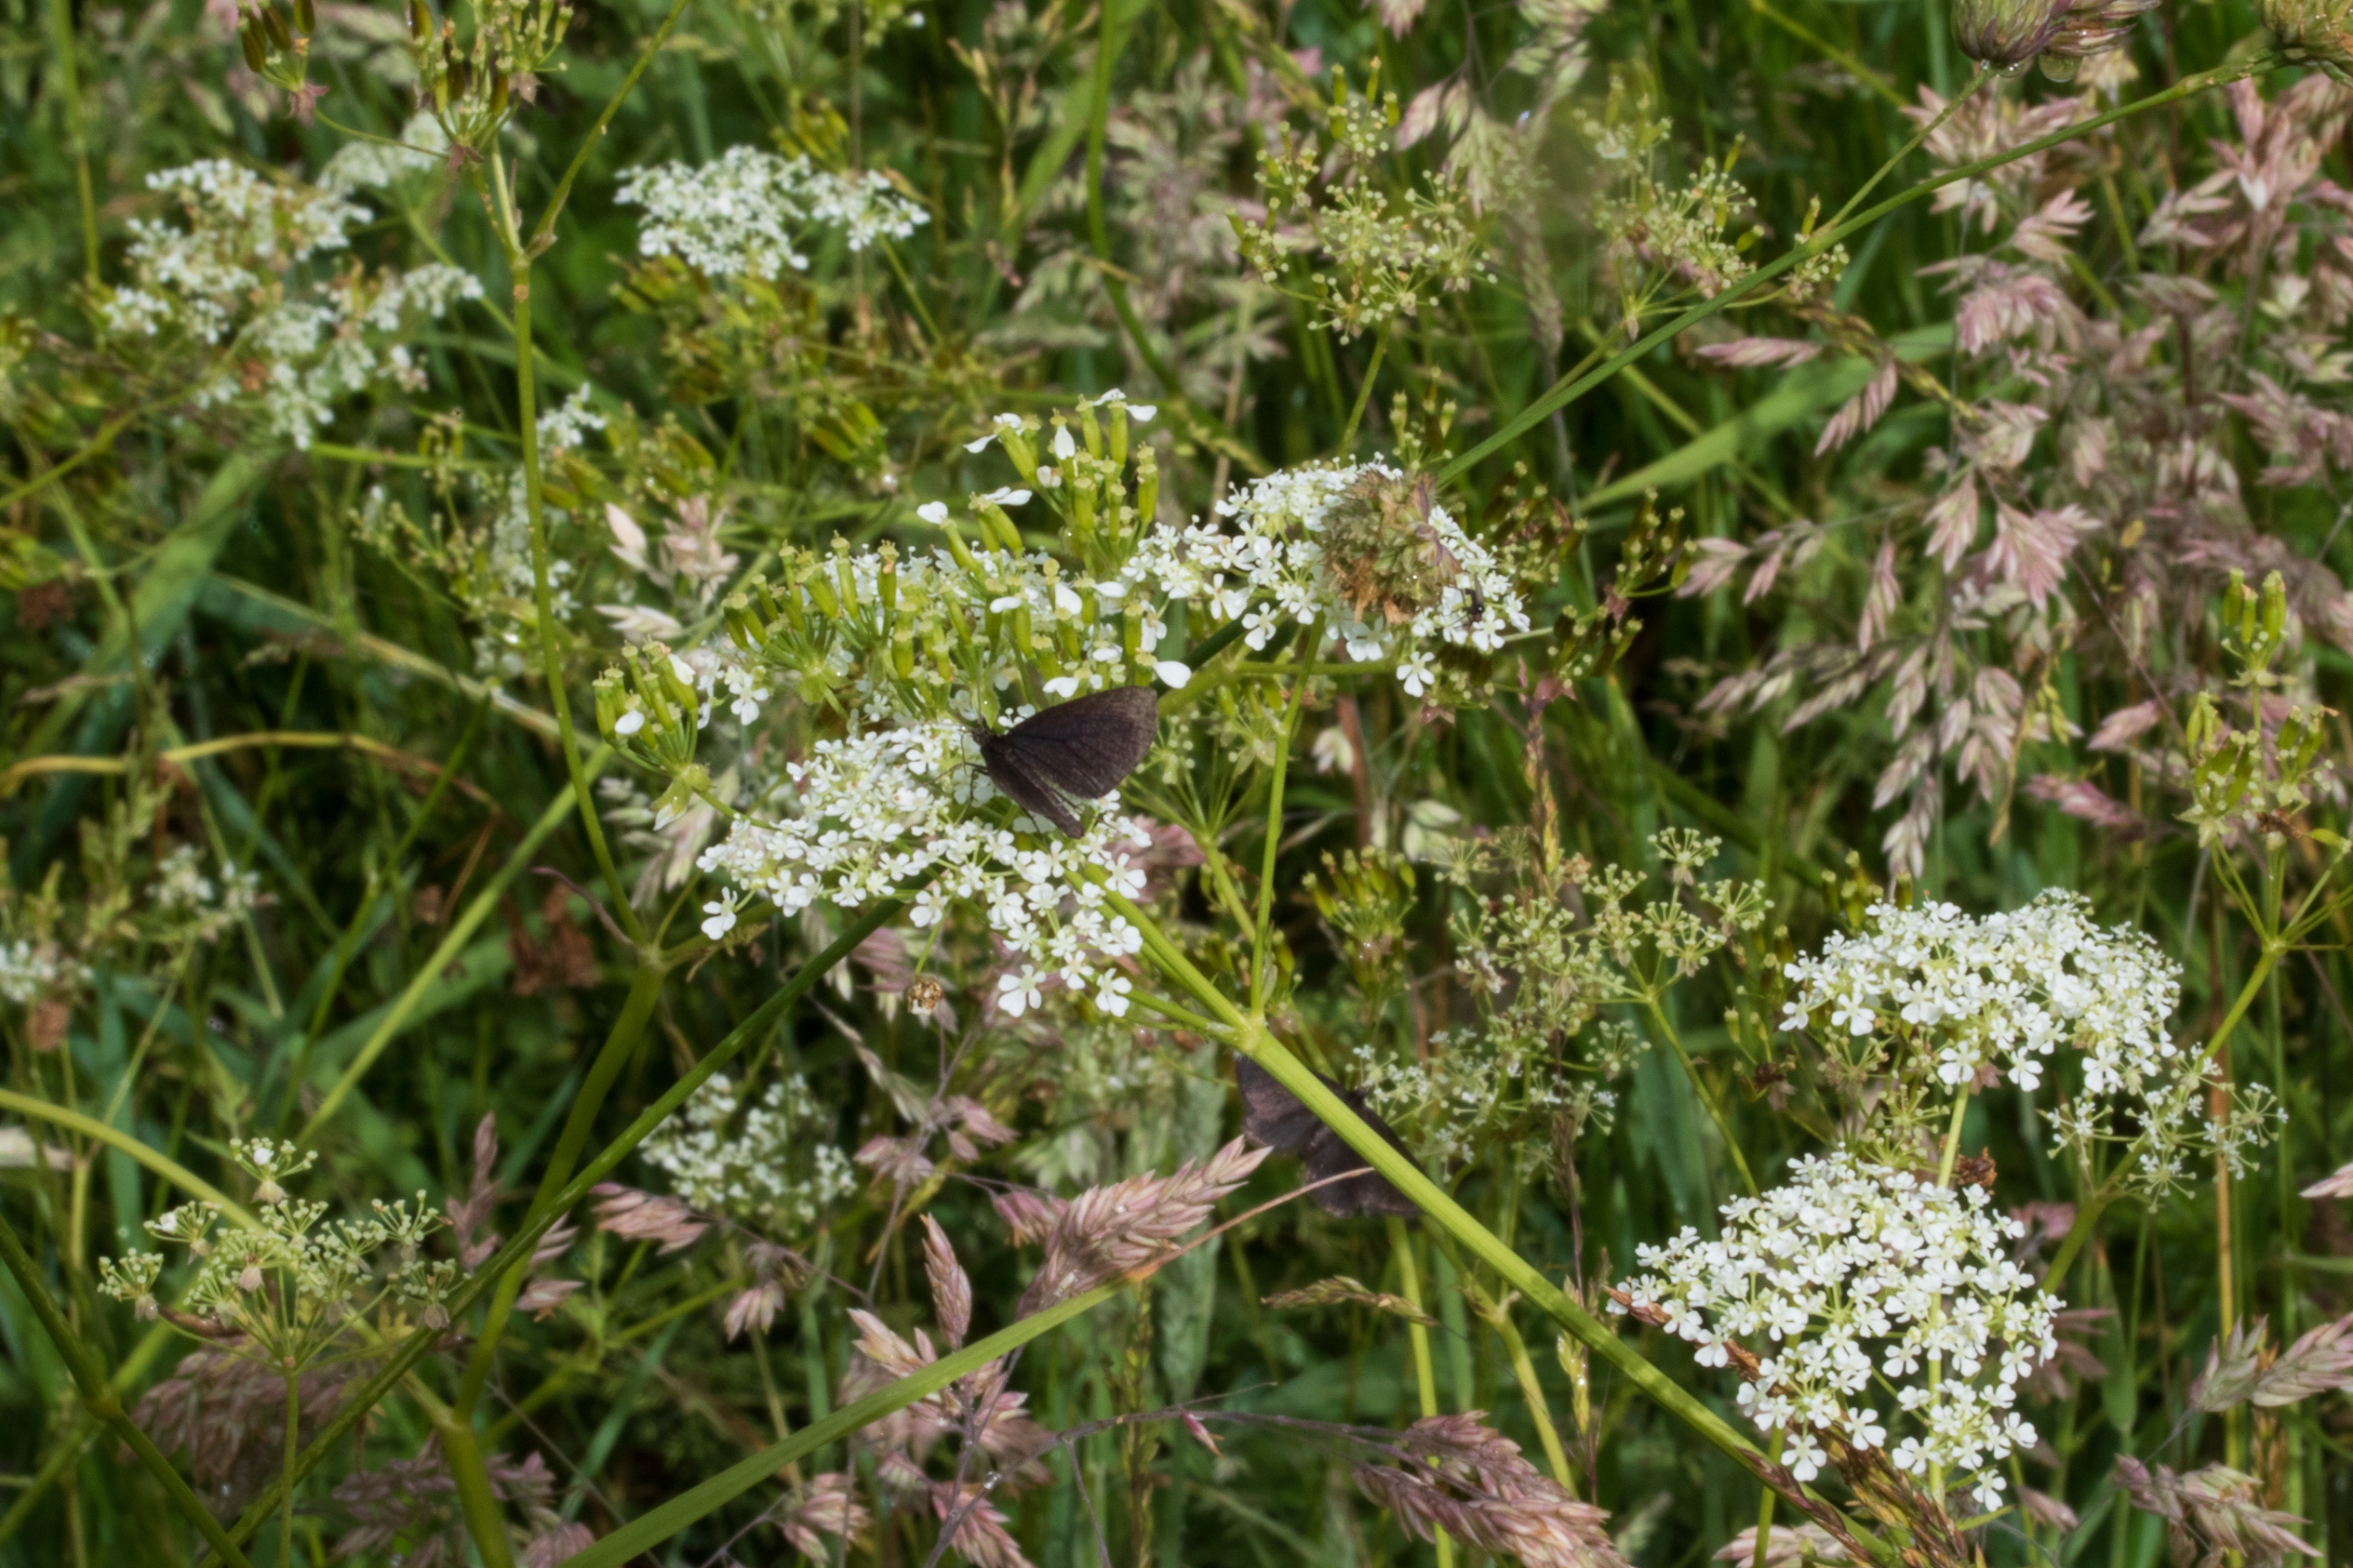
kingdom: Plantae
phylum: Tracheophyta
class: Magnoliopsida
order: Apiales
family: Apiaceae
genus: Anthriscus
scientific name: Anthriscus sylvestris
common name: Vild kørvel
